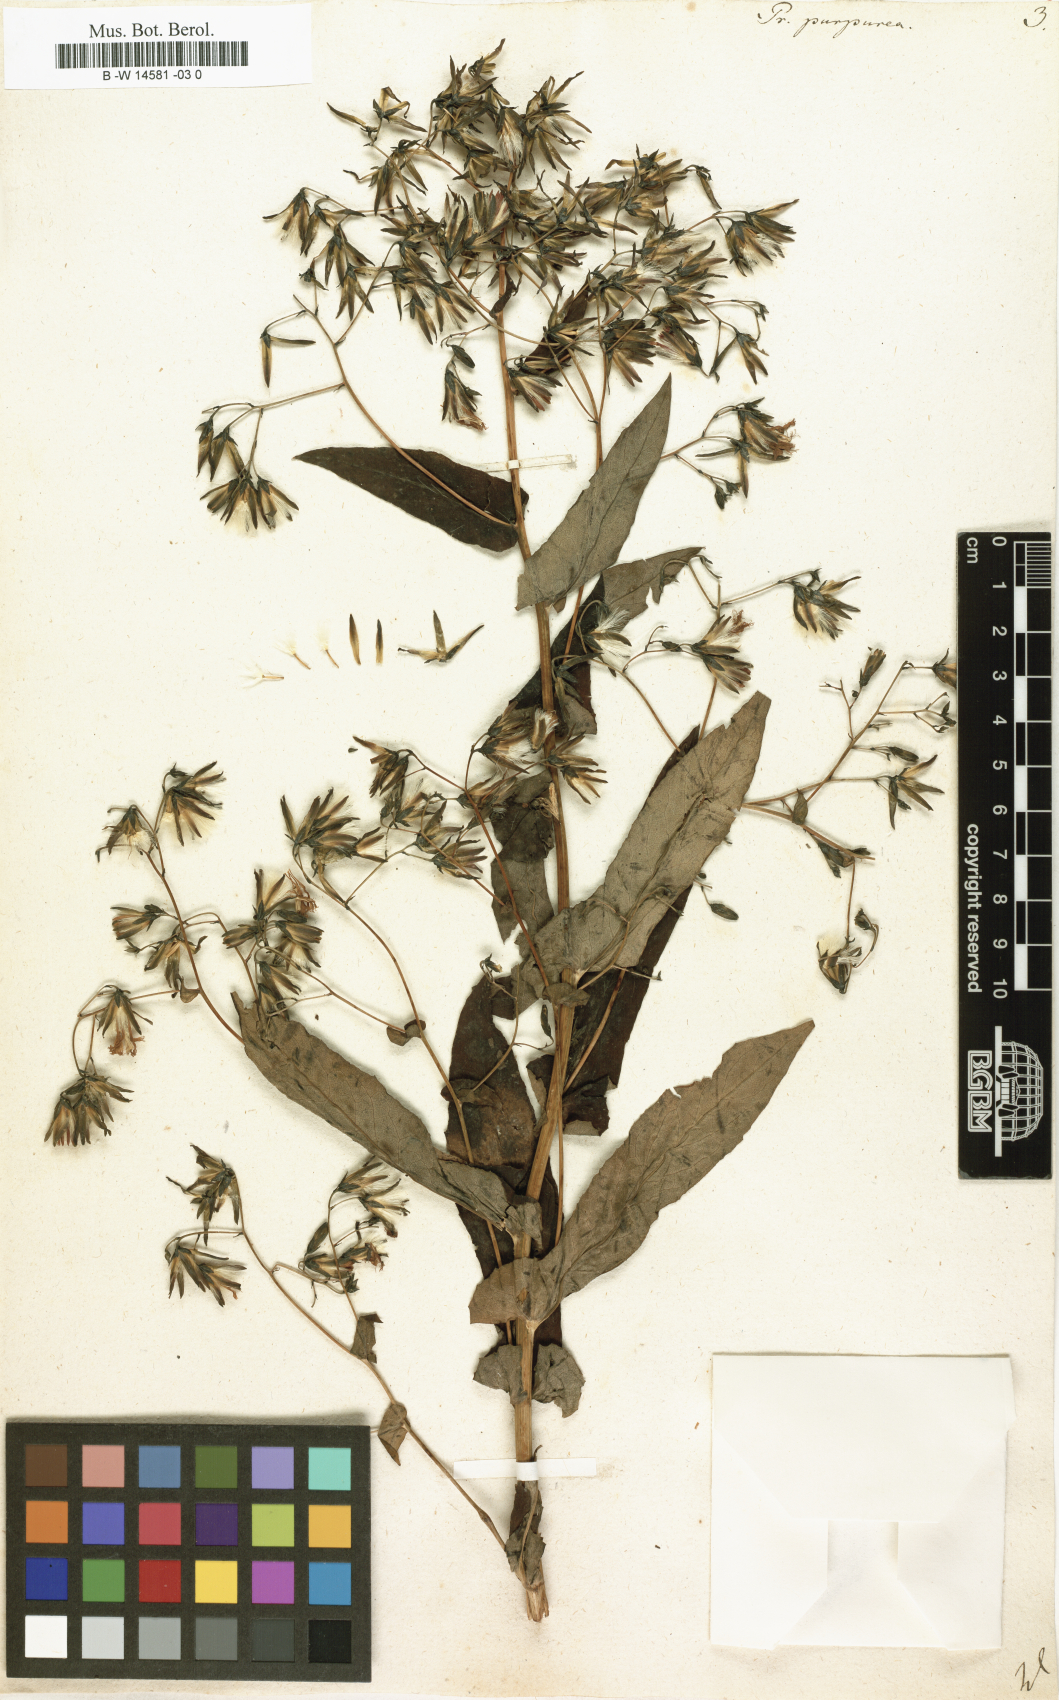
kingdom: Plantae
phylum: Tracheophyta
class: Magnoliopsida
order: Asterales
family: Asteraceae
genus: Prenanthes
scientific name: Prenanthes purpurea
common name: Purple lettuce
